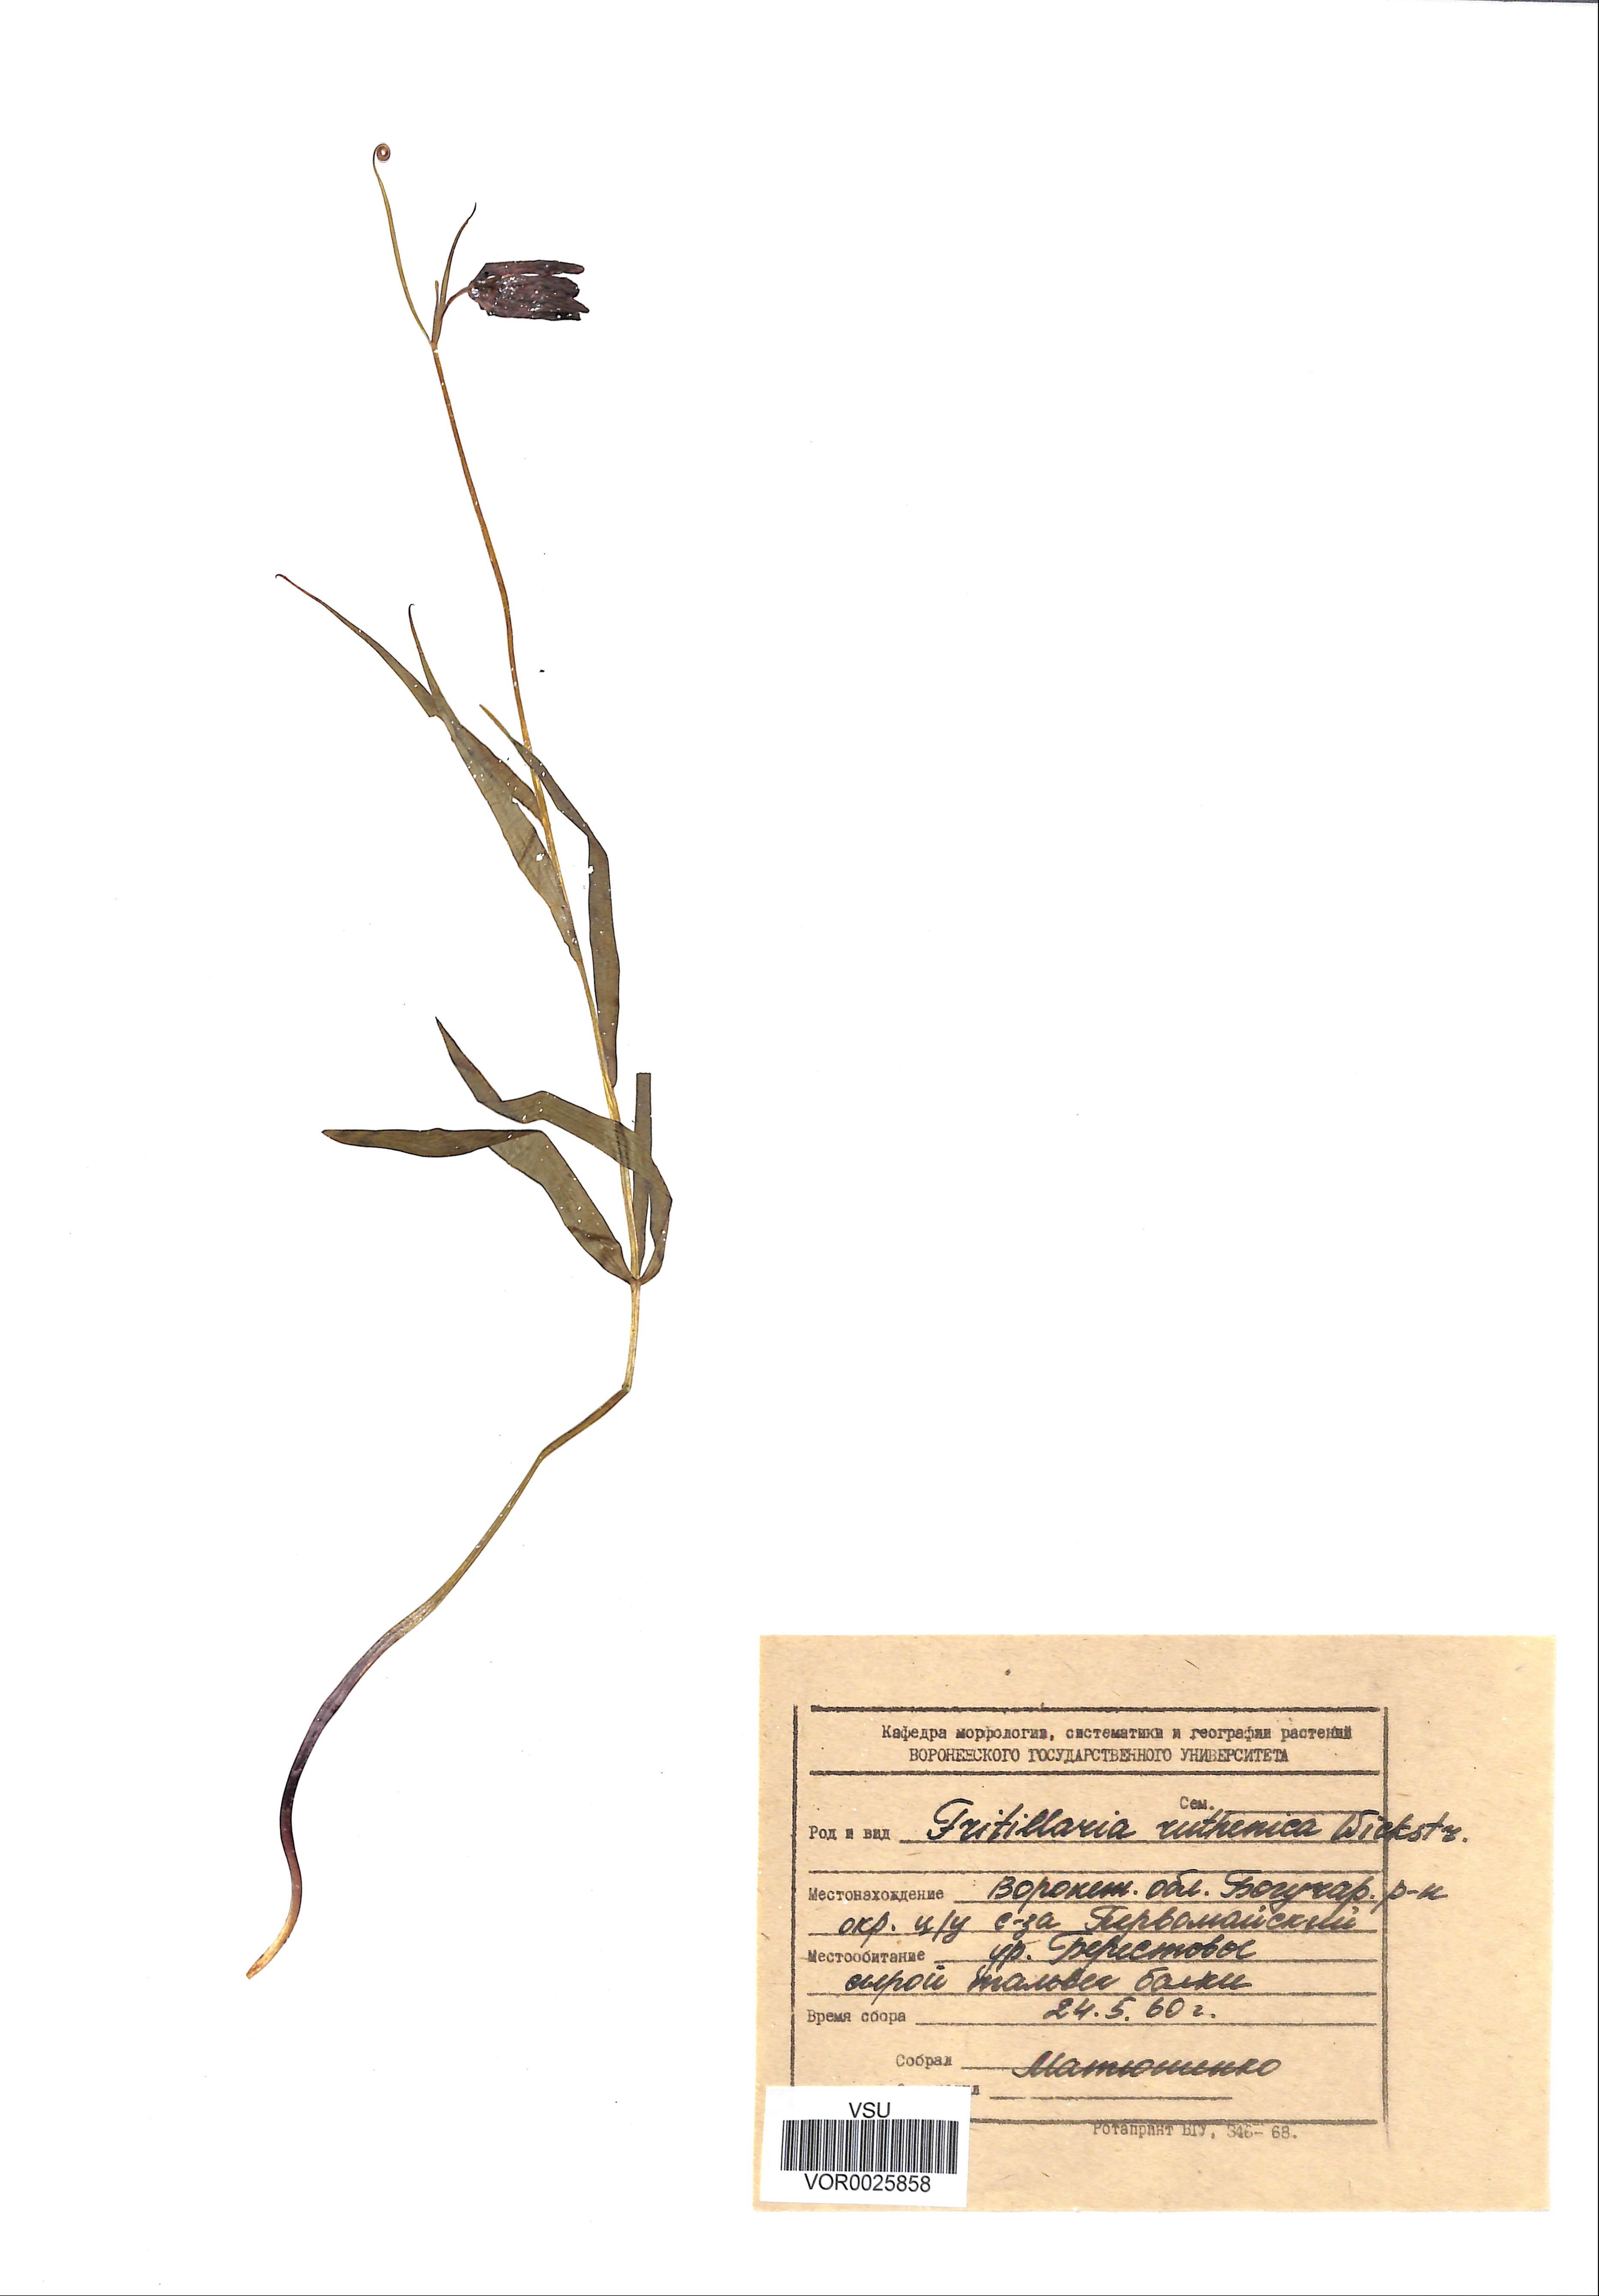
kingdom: Plantae
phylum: Tracheophyta
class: Liliopsida
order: Liliales
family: Liliaceae
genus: Fritillaria
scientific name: Fritillaria ruthenica
